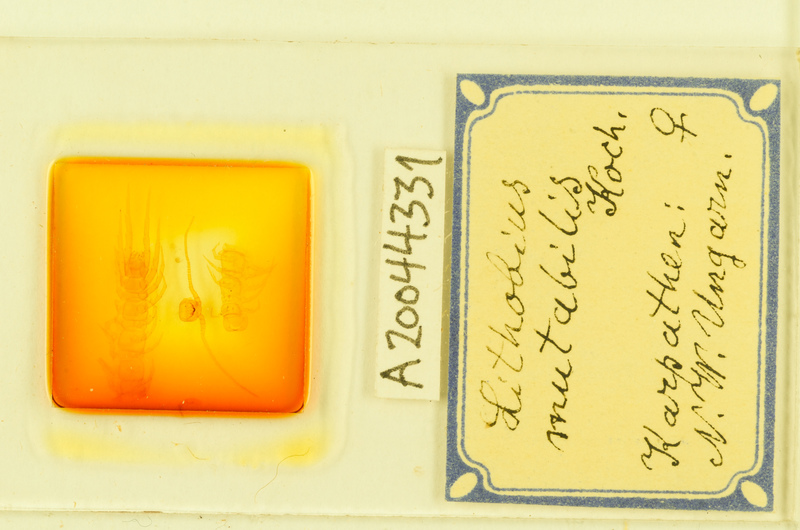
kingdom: Animalia
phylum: Arthropoda
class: Chilopoda
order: Lithobiomorpha
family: Lithobiidae
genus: Lithobius
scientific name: Lithobius mutabilis
